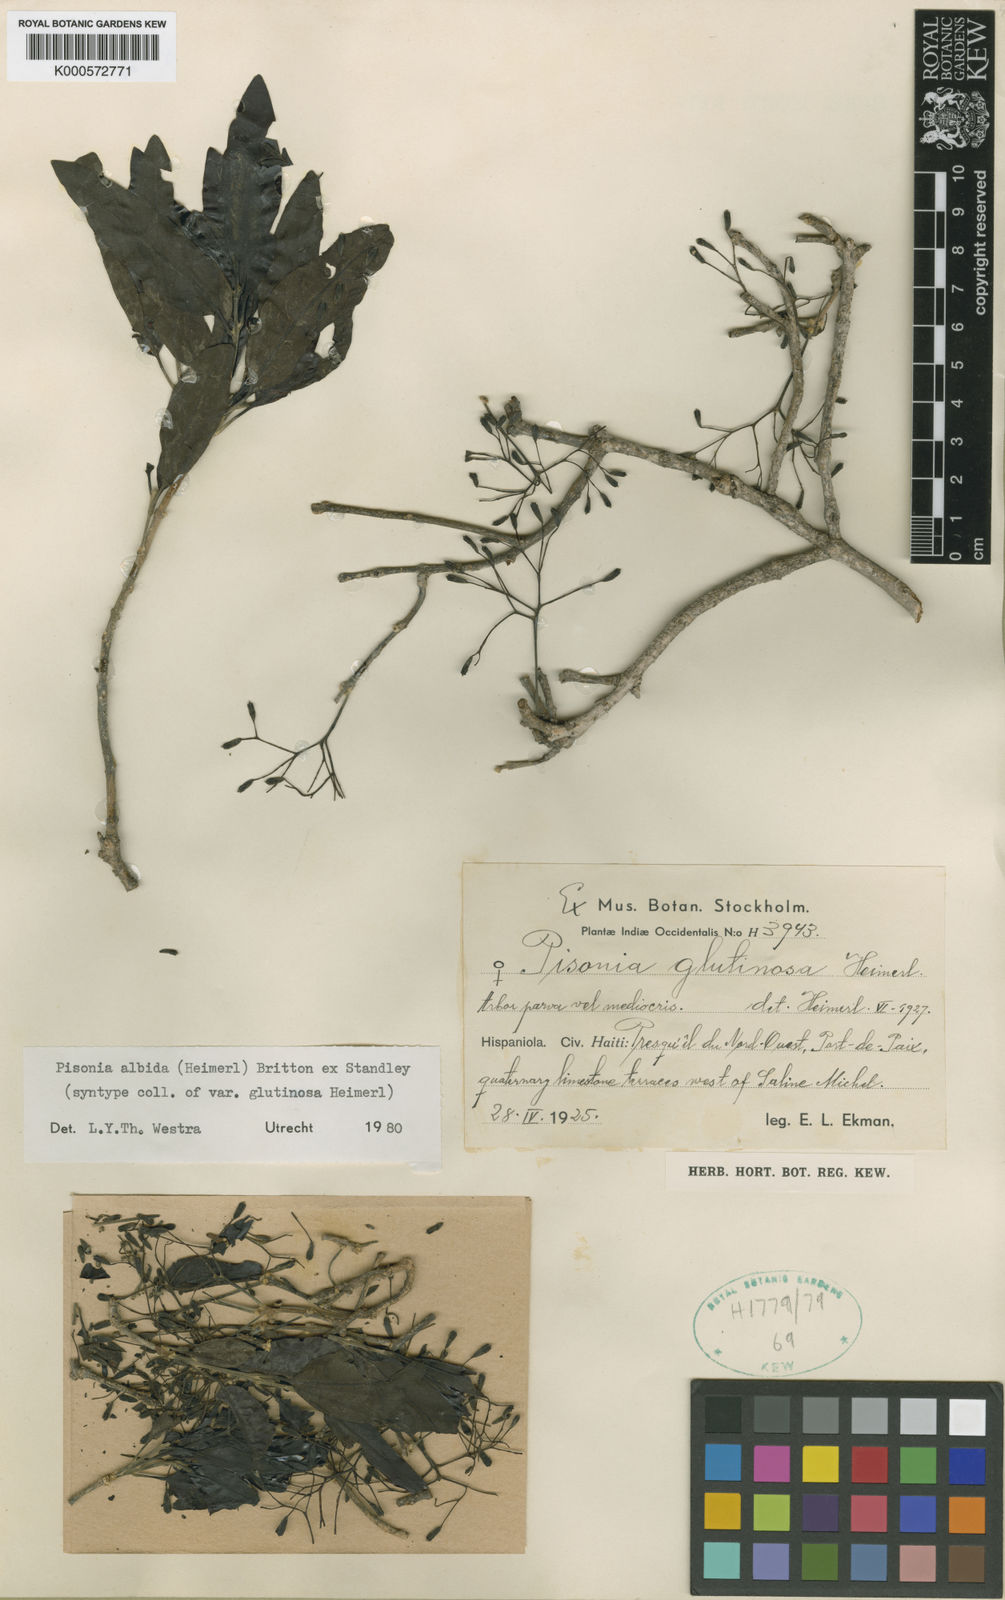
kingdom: Plantae
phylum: Tracheophyta
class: Magnoliopsida
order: Caryophyllales
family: Nyctaginaceae
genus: Pisonia
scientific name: Pisonia albida
